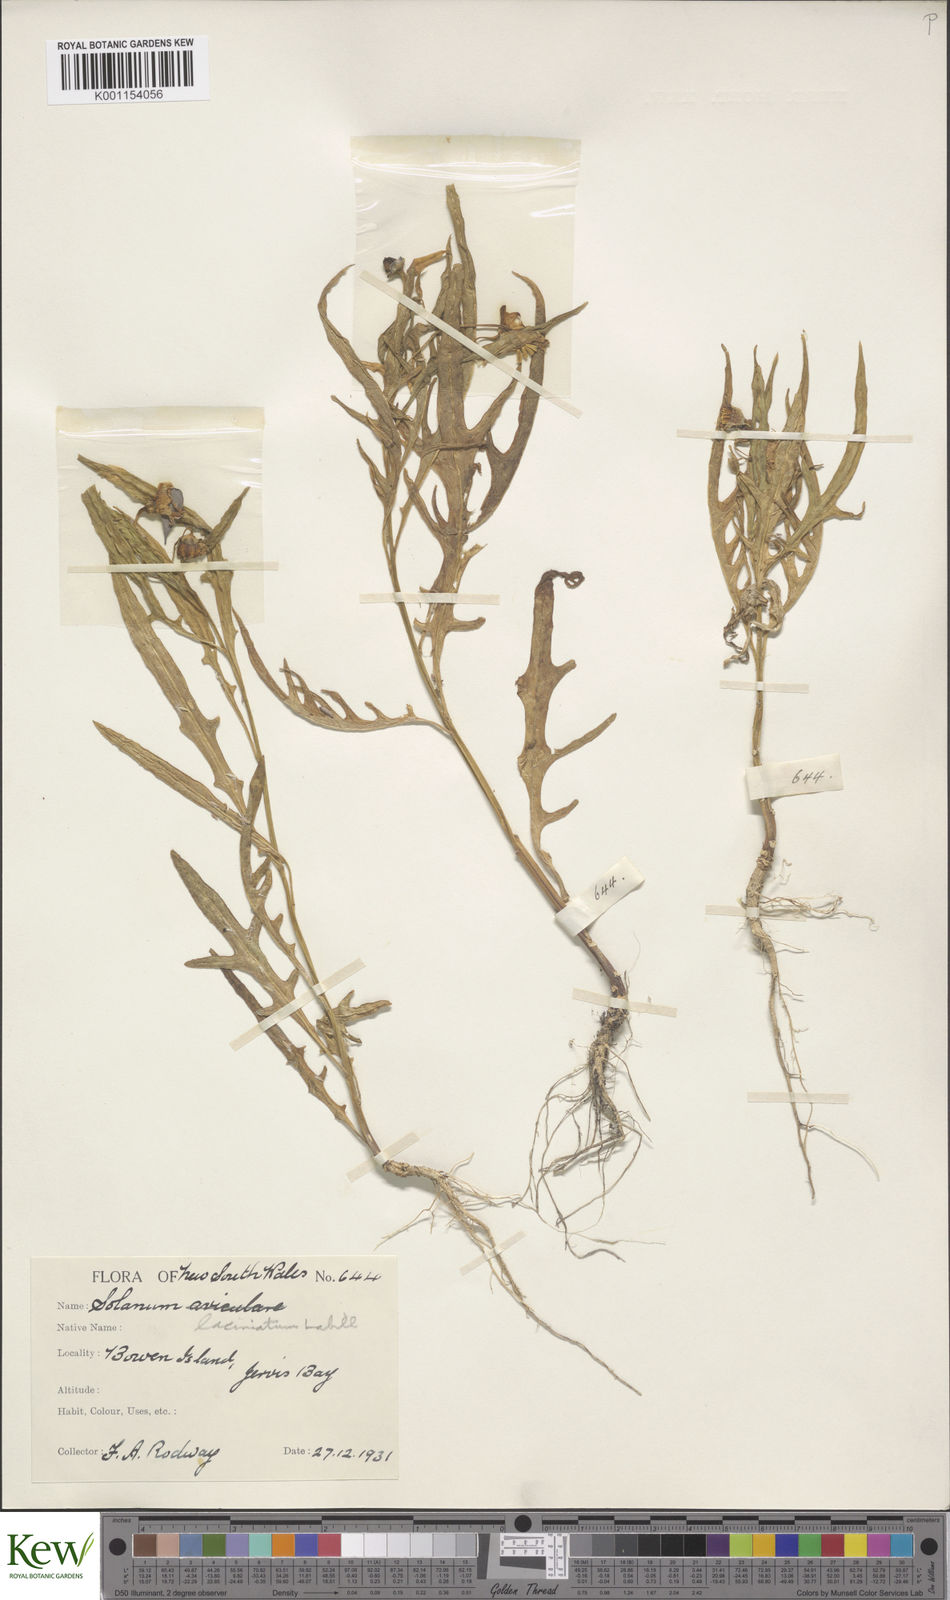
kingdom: Plantae
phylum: Tracheophyta
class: Magnoliopsida
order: Solanales
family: Solanaceae
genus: Solanum
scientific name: Solanum vescum
